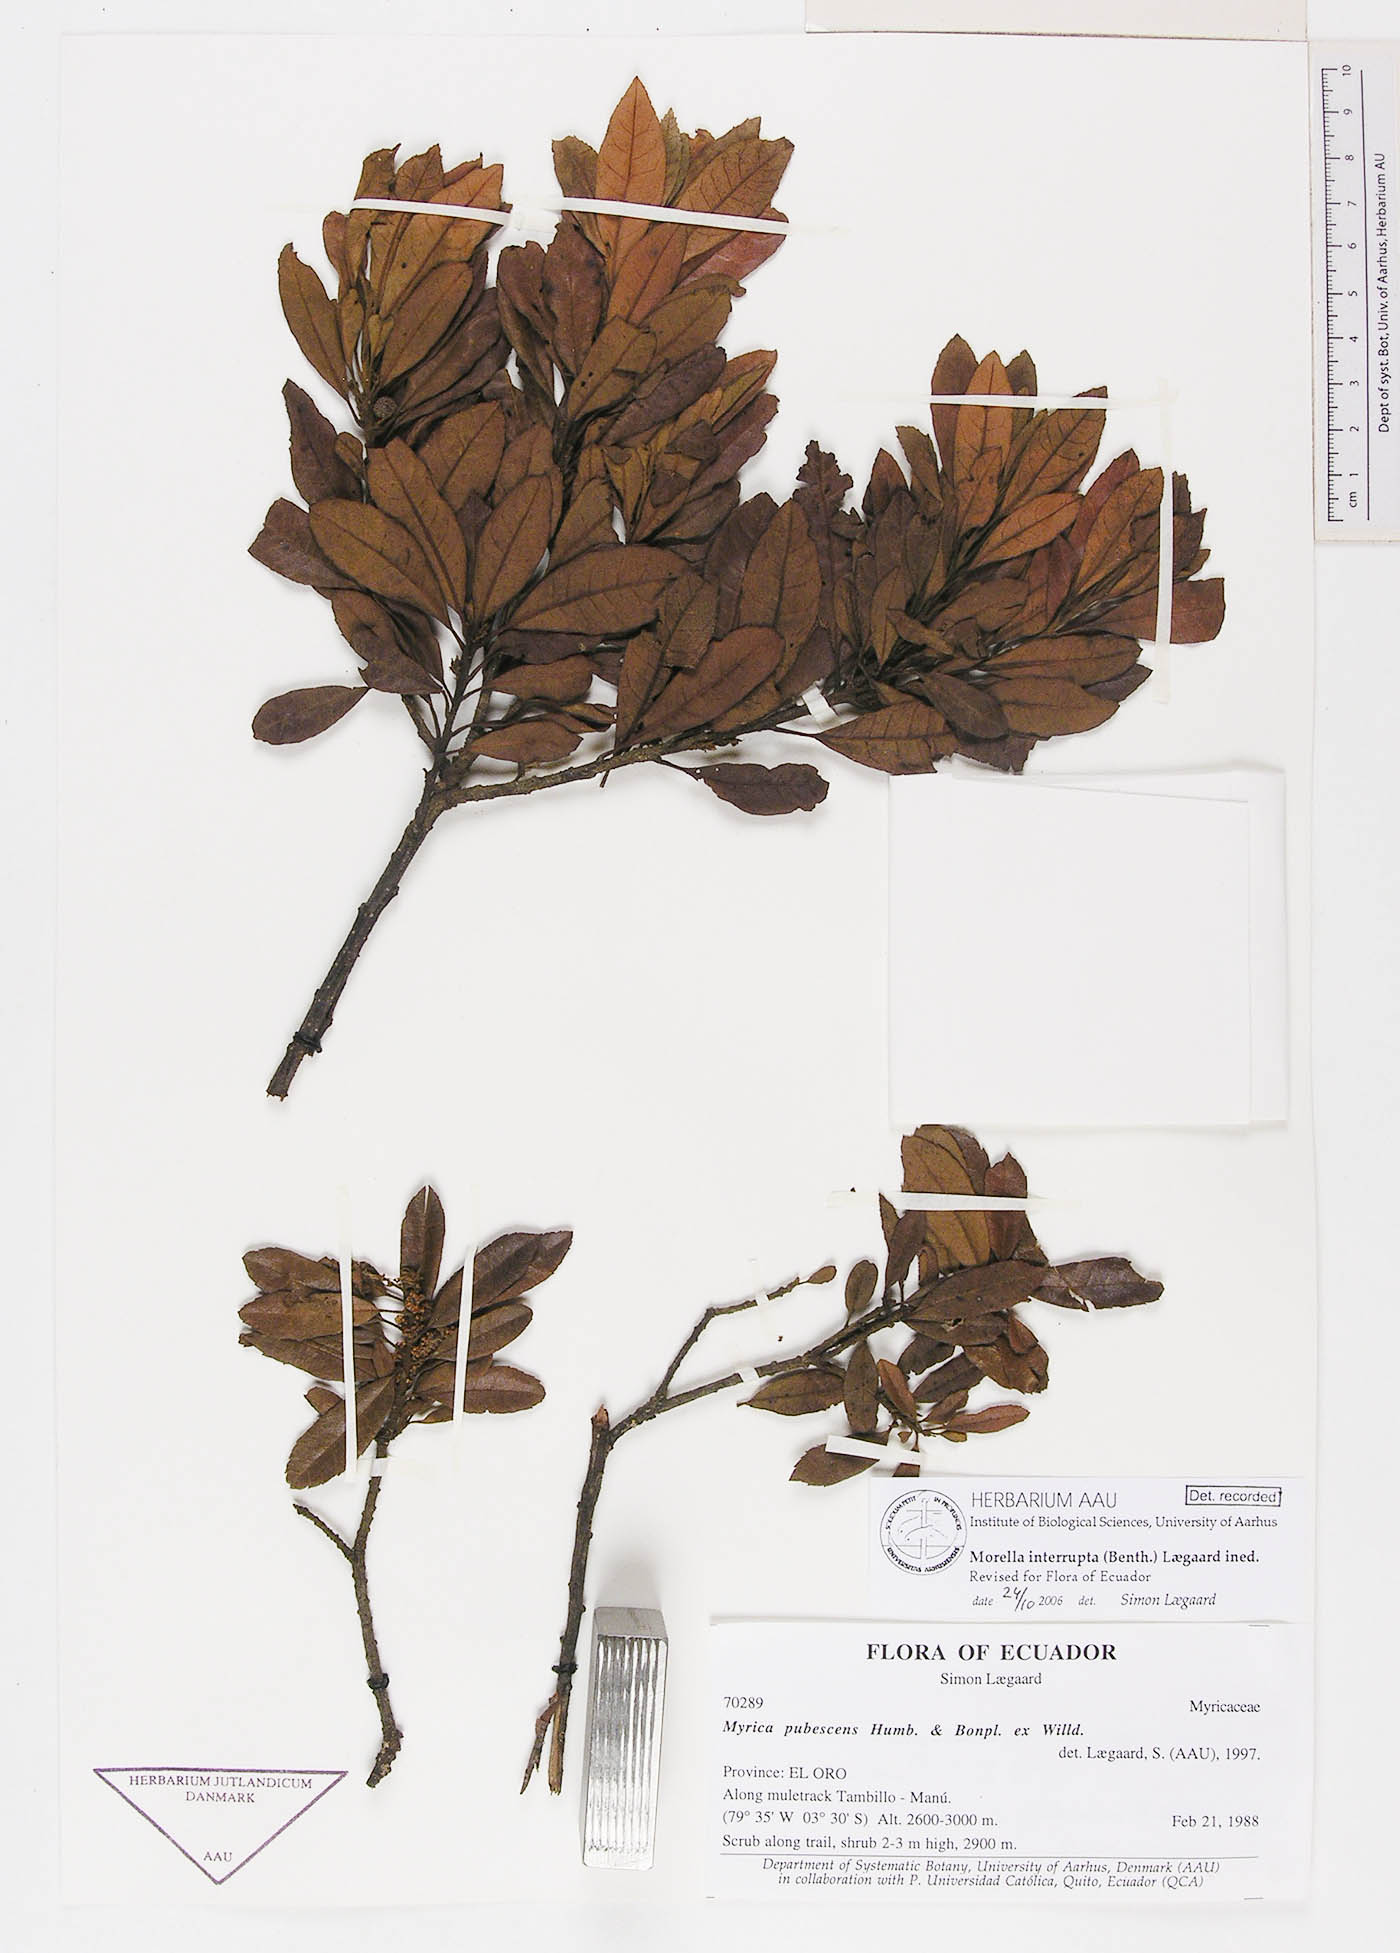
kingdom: Plantae
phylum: Tracheophyta
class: Magnoliopsida
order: Fagales
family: Myricaceae
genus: Morella
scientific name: Morella interrupta
